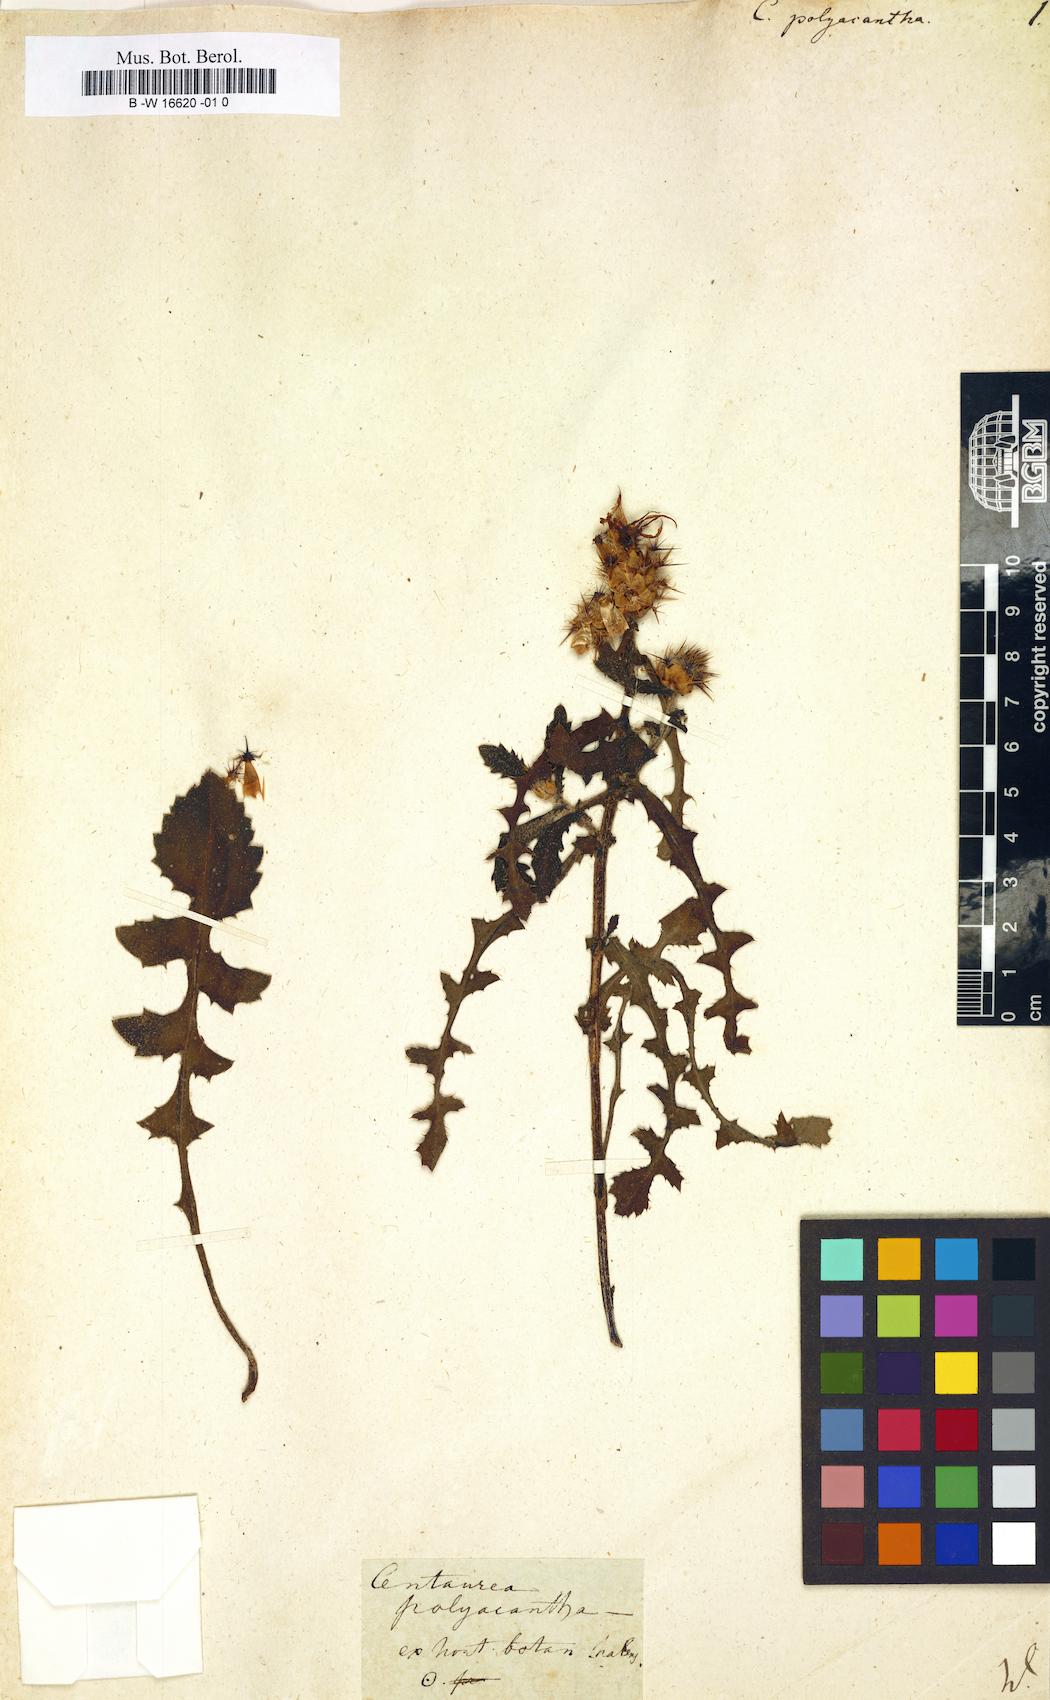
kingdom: Plantae
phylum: Tracheophyta
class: Magnoliopsida
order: Asterales
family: Asteraceae
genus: Centaurea
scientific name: Centaurea polyacantha
